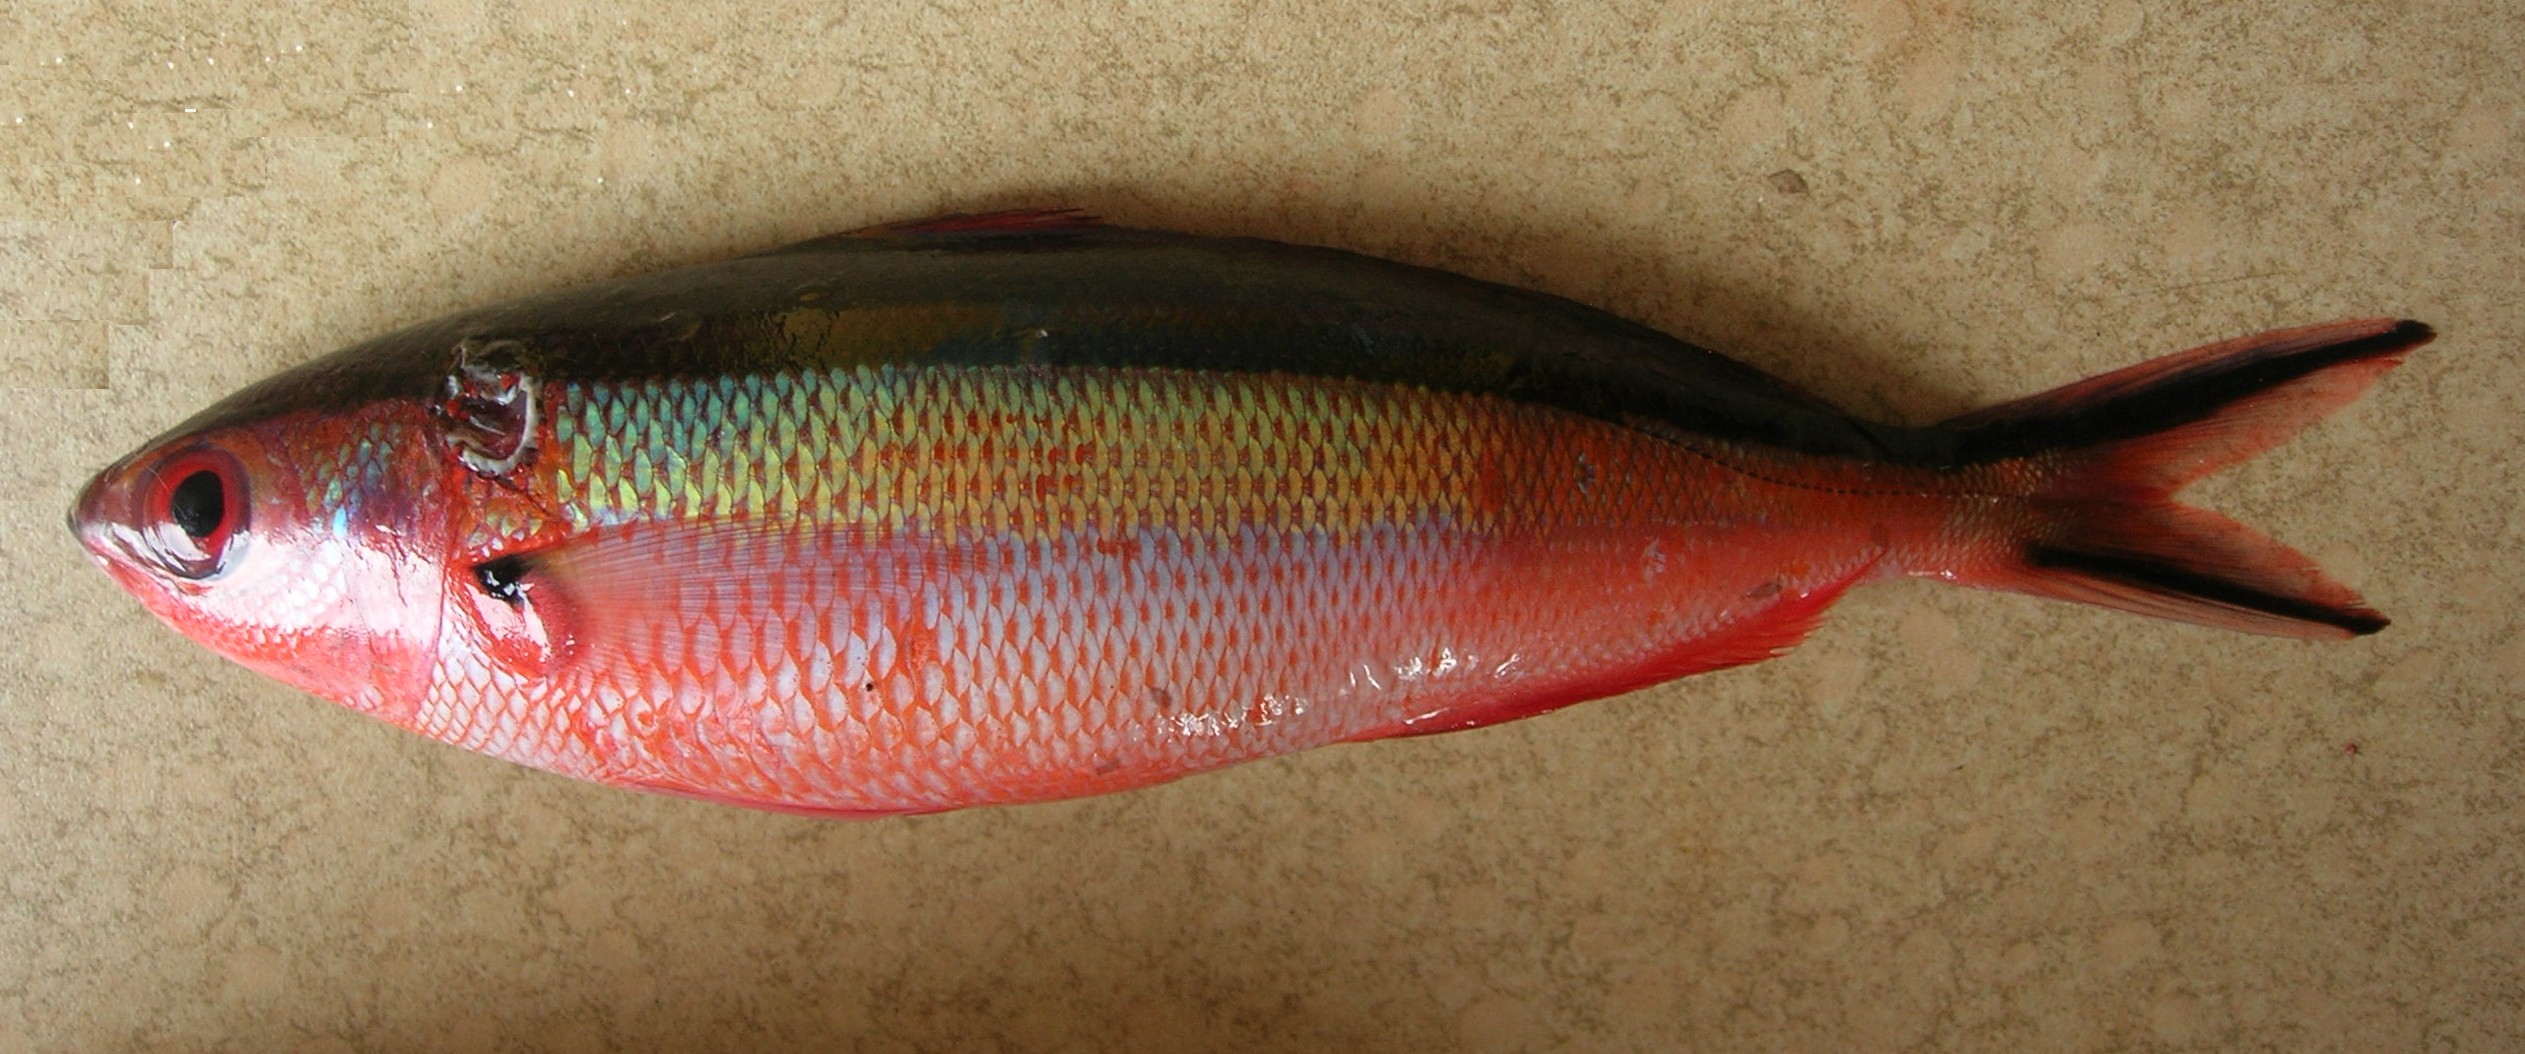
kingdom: Animalia
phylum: Chordata
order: Perciformes
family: Caesionidae
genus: Pterocaesio
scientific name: Pterocaesio tile
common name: Dark-banded fusilier
